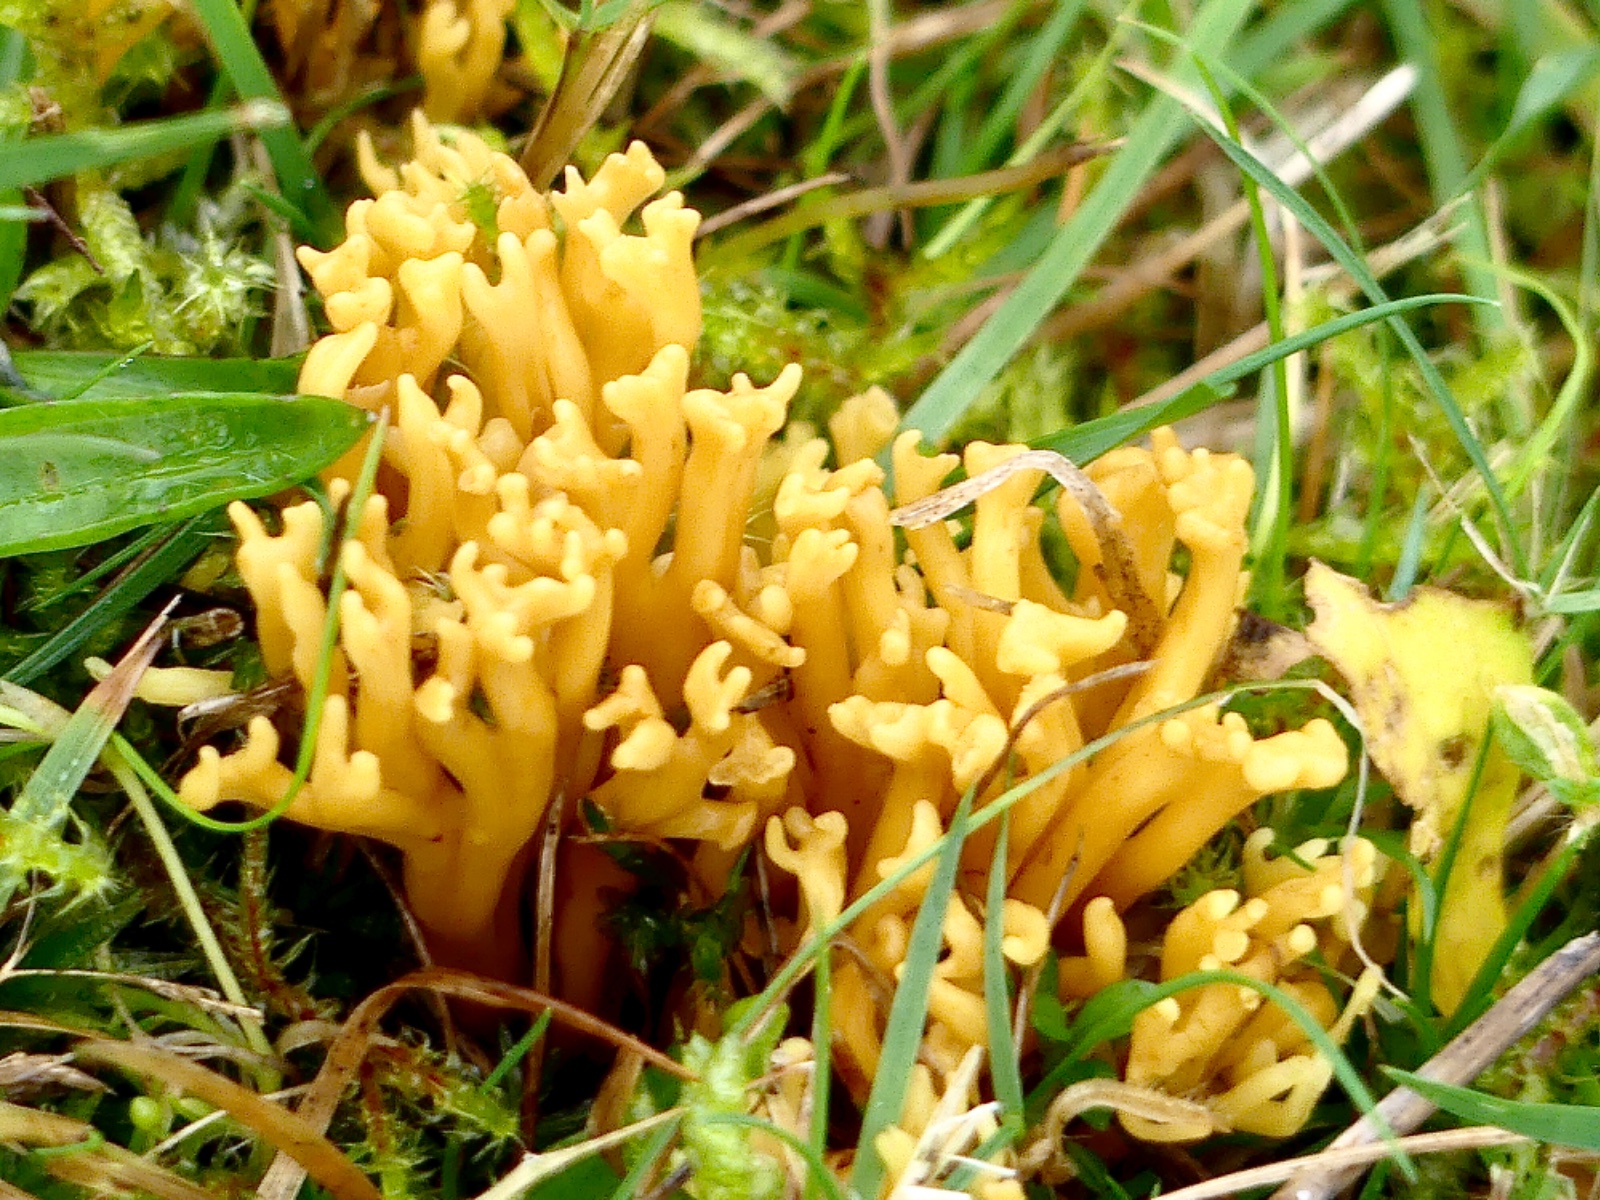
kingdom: Fungi
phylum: Basidiomycota
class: Agaricomycetes
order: Agaricales
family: Clavariaceae
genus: Clavulinopsis
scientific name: Clavulinopsis corniculata
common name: eng-køllesvamp
